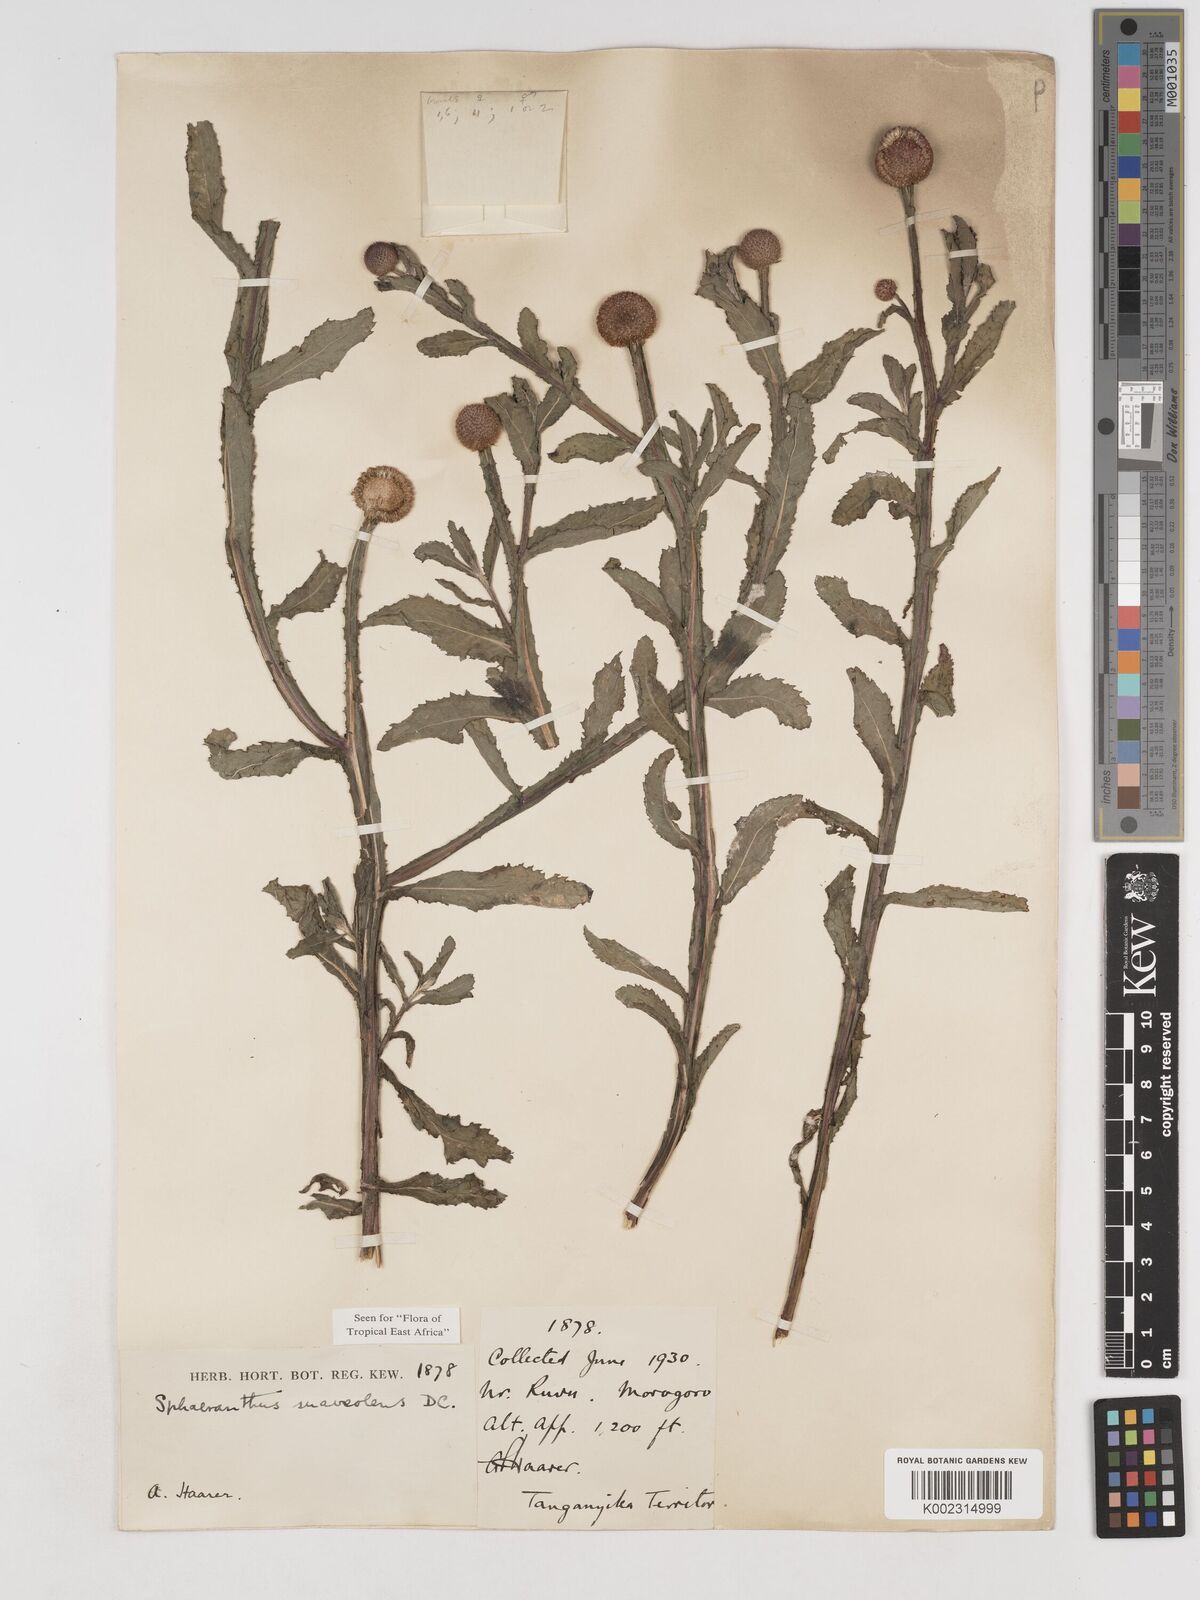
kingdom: Plantae
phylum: Tracheophyta
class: Magnoliopsida
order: Asterales
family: Asteraceae
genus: Sphaeranthus
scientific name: Sphaeranthus suaveolens
